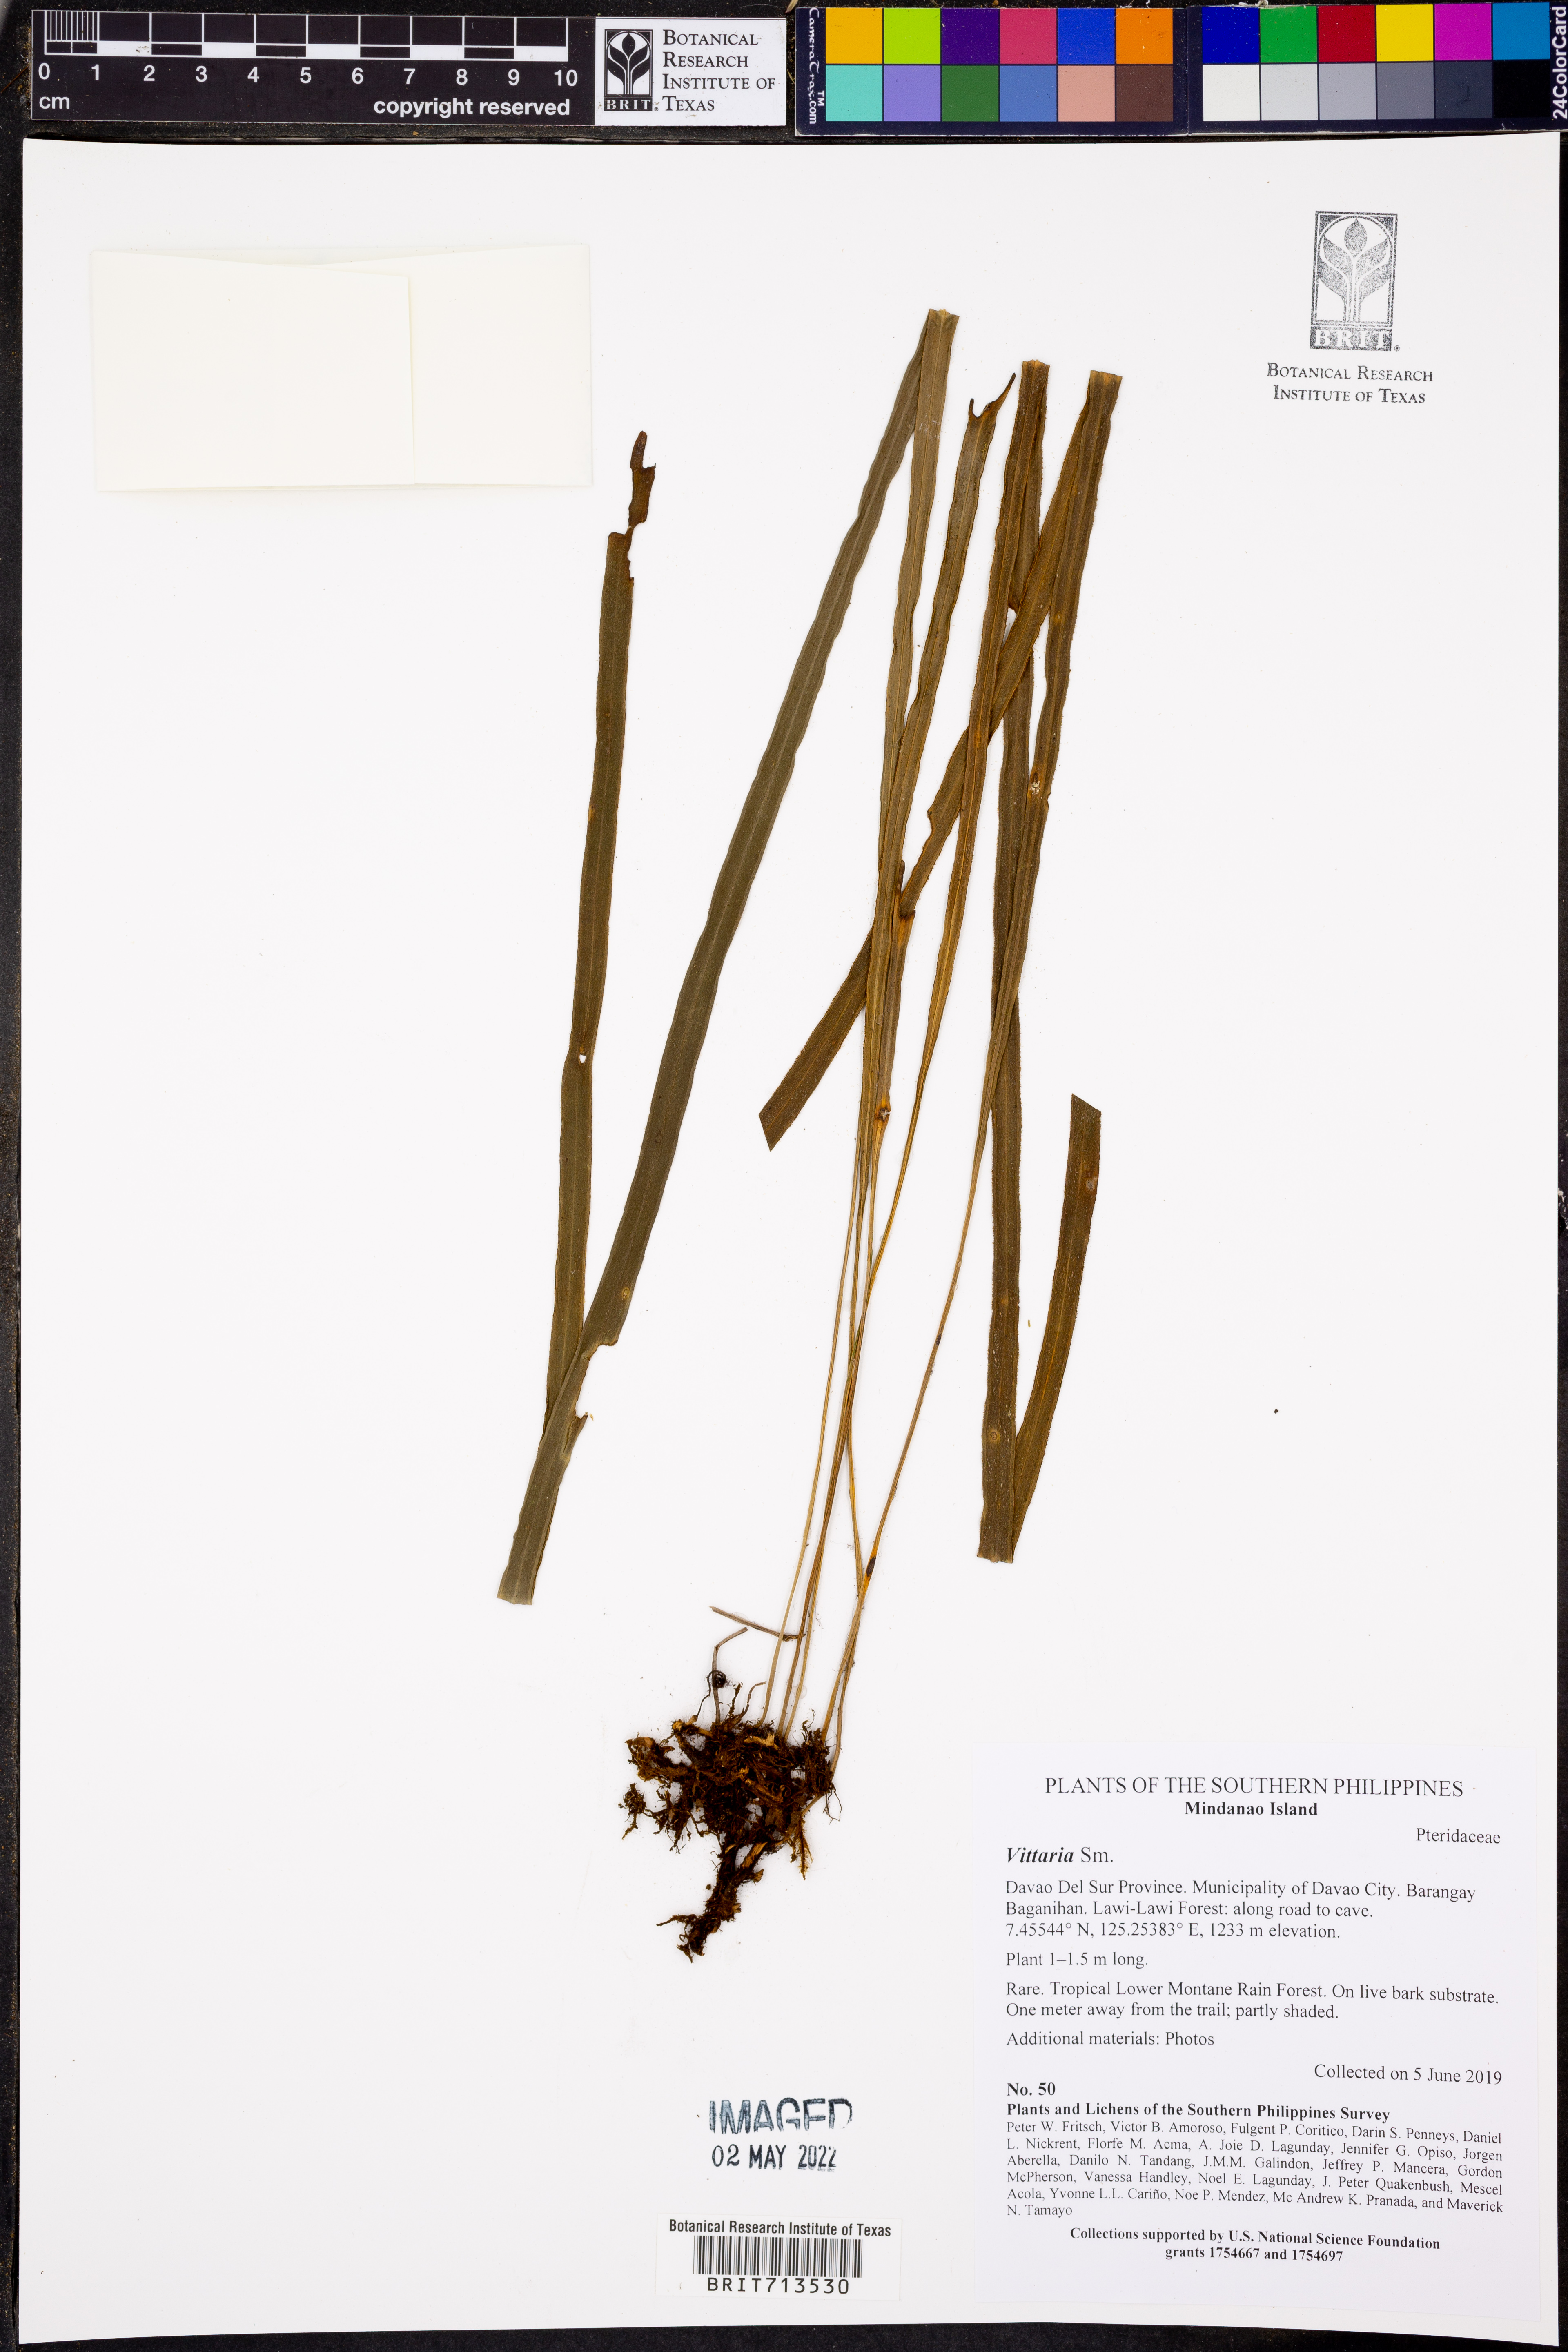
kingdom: Plantae
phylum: Tracheophyta
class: Polypodiopsida
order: Polypodiales
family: Pteridaceae
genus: Vittaria
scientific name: Vittaria
